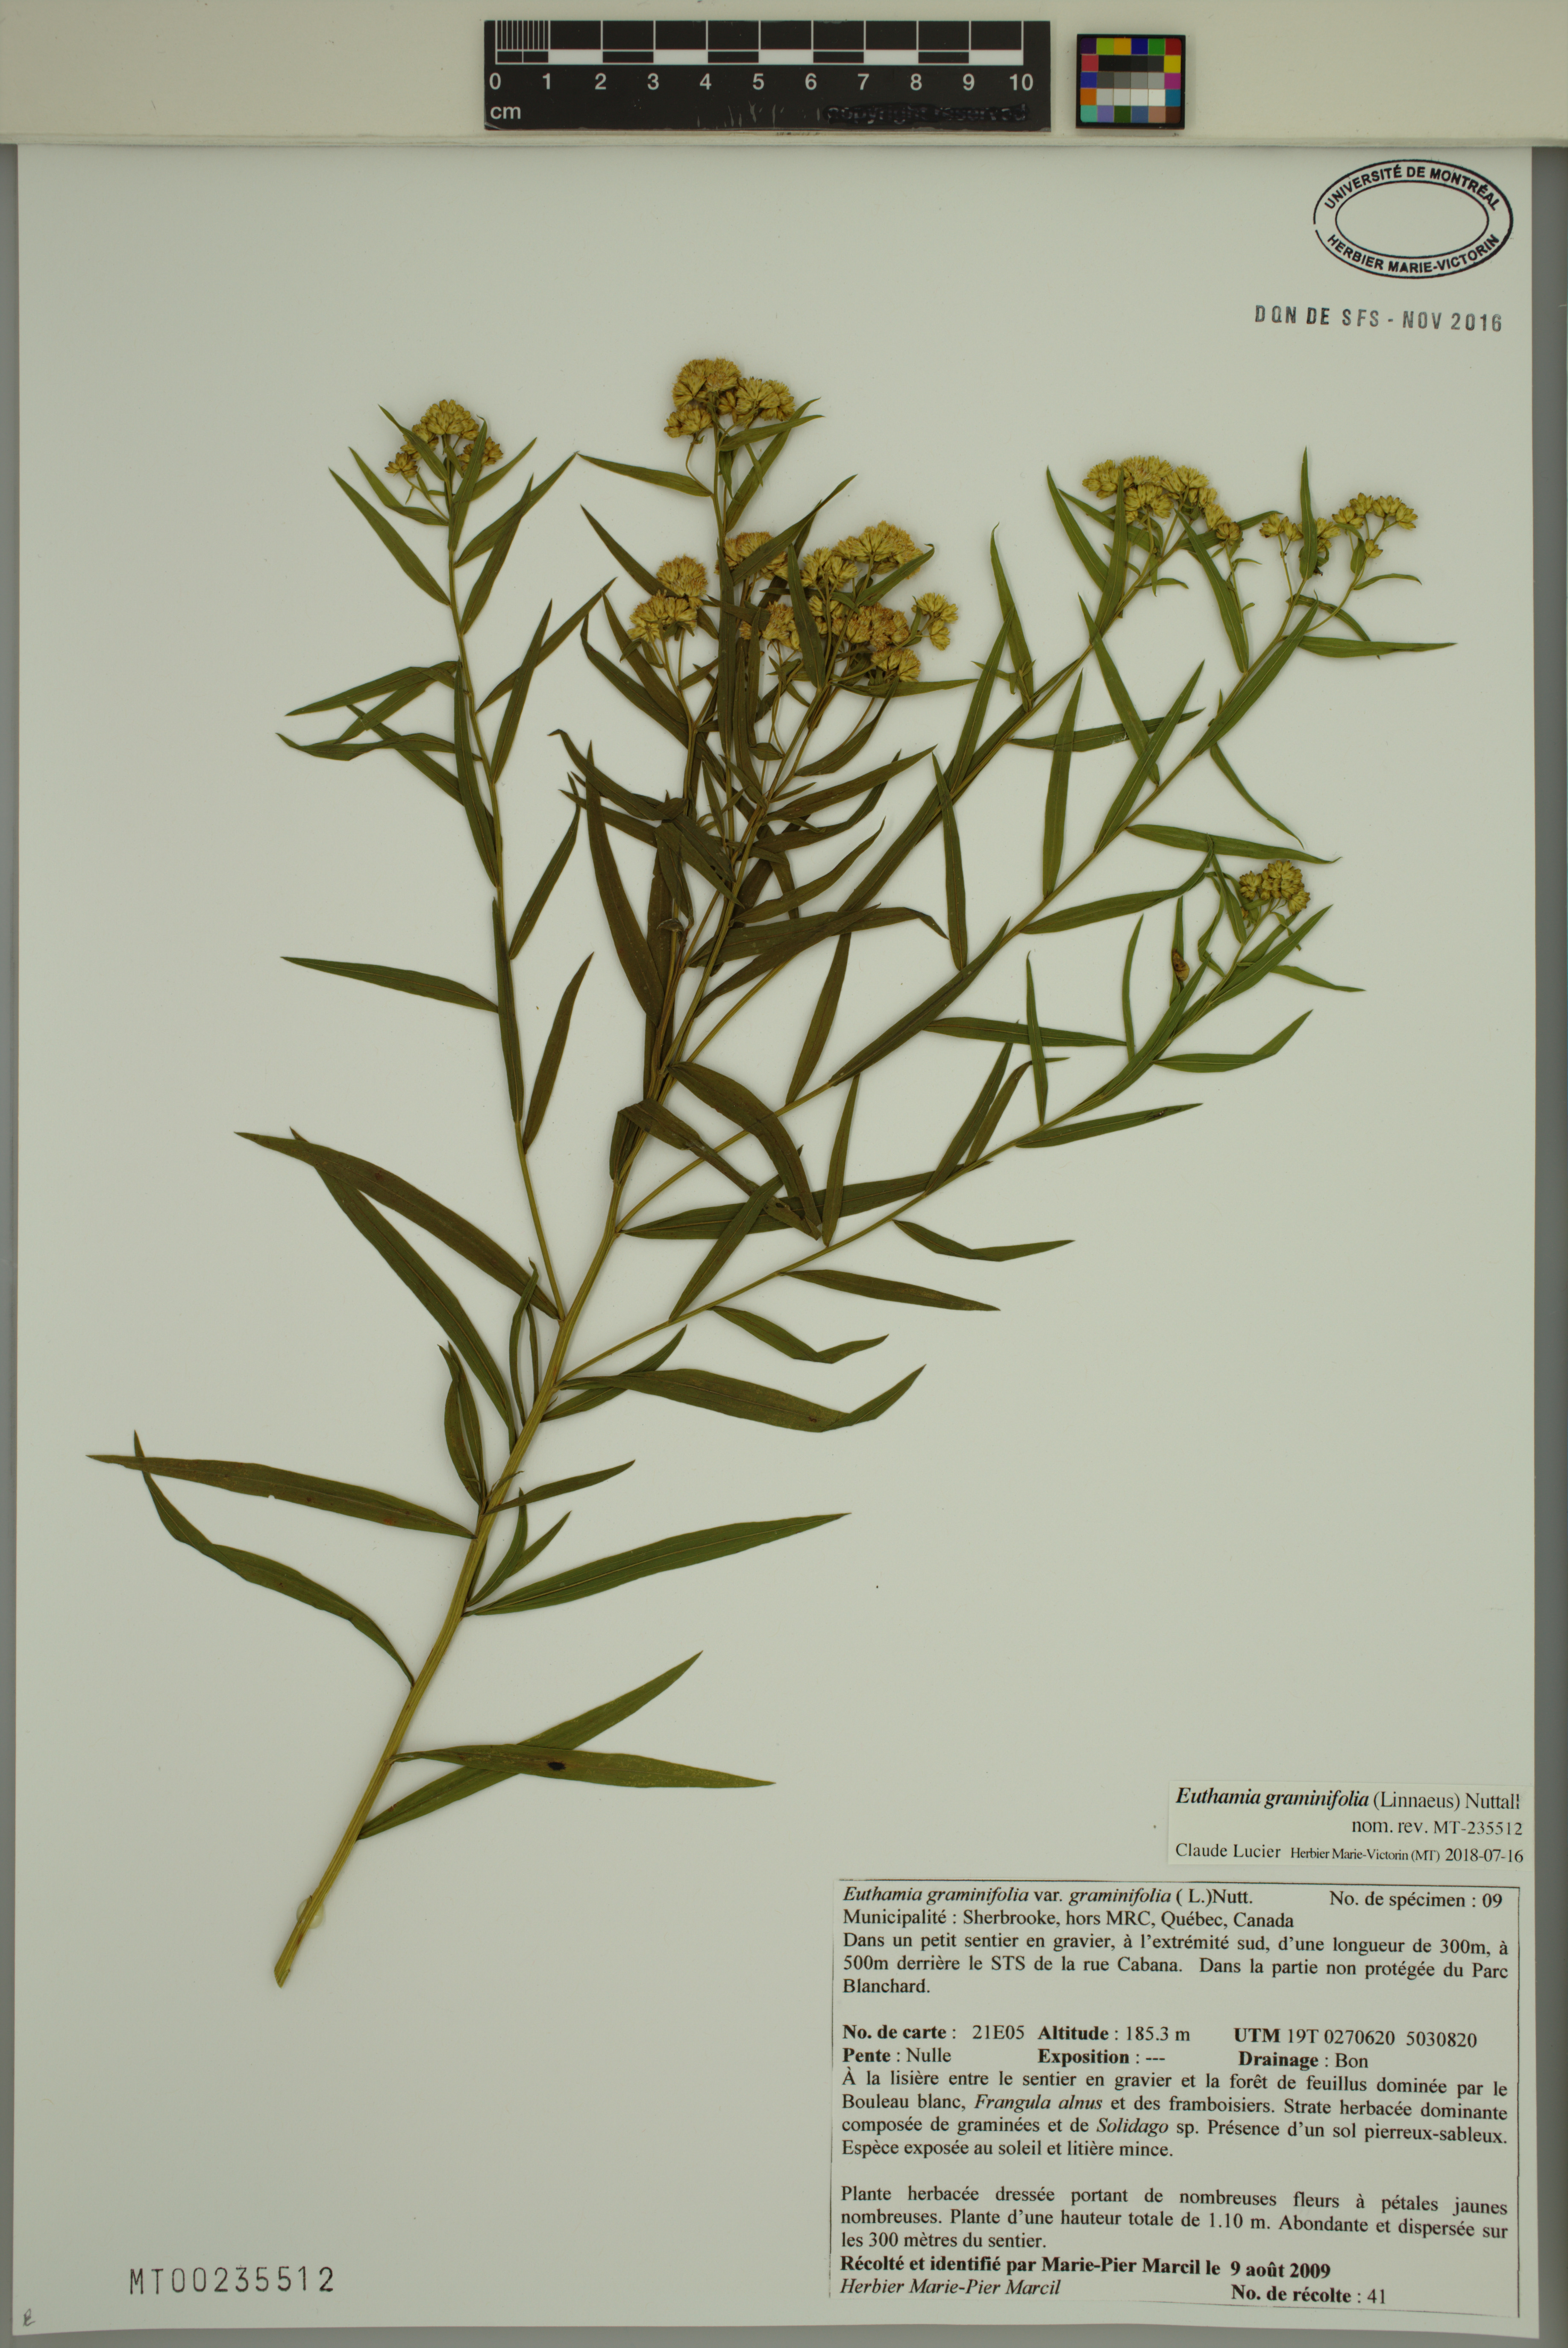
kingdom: Plantae
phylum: Tracheophyta
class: Magnoliopsida
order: Asterales
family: Asteraceae
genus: Euthamia
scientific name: Euthamia graminifolia
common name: Common goldentop
